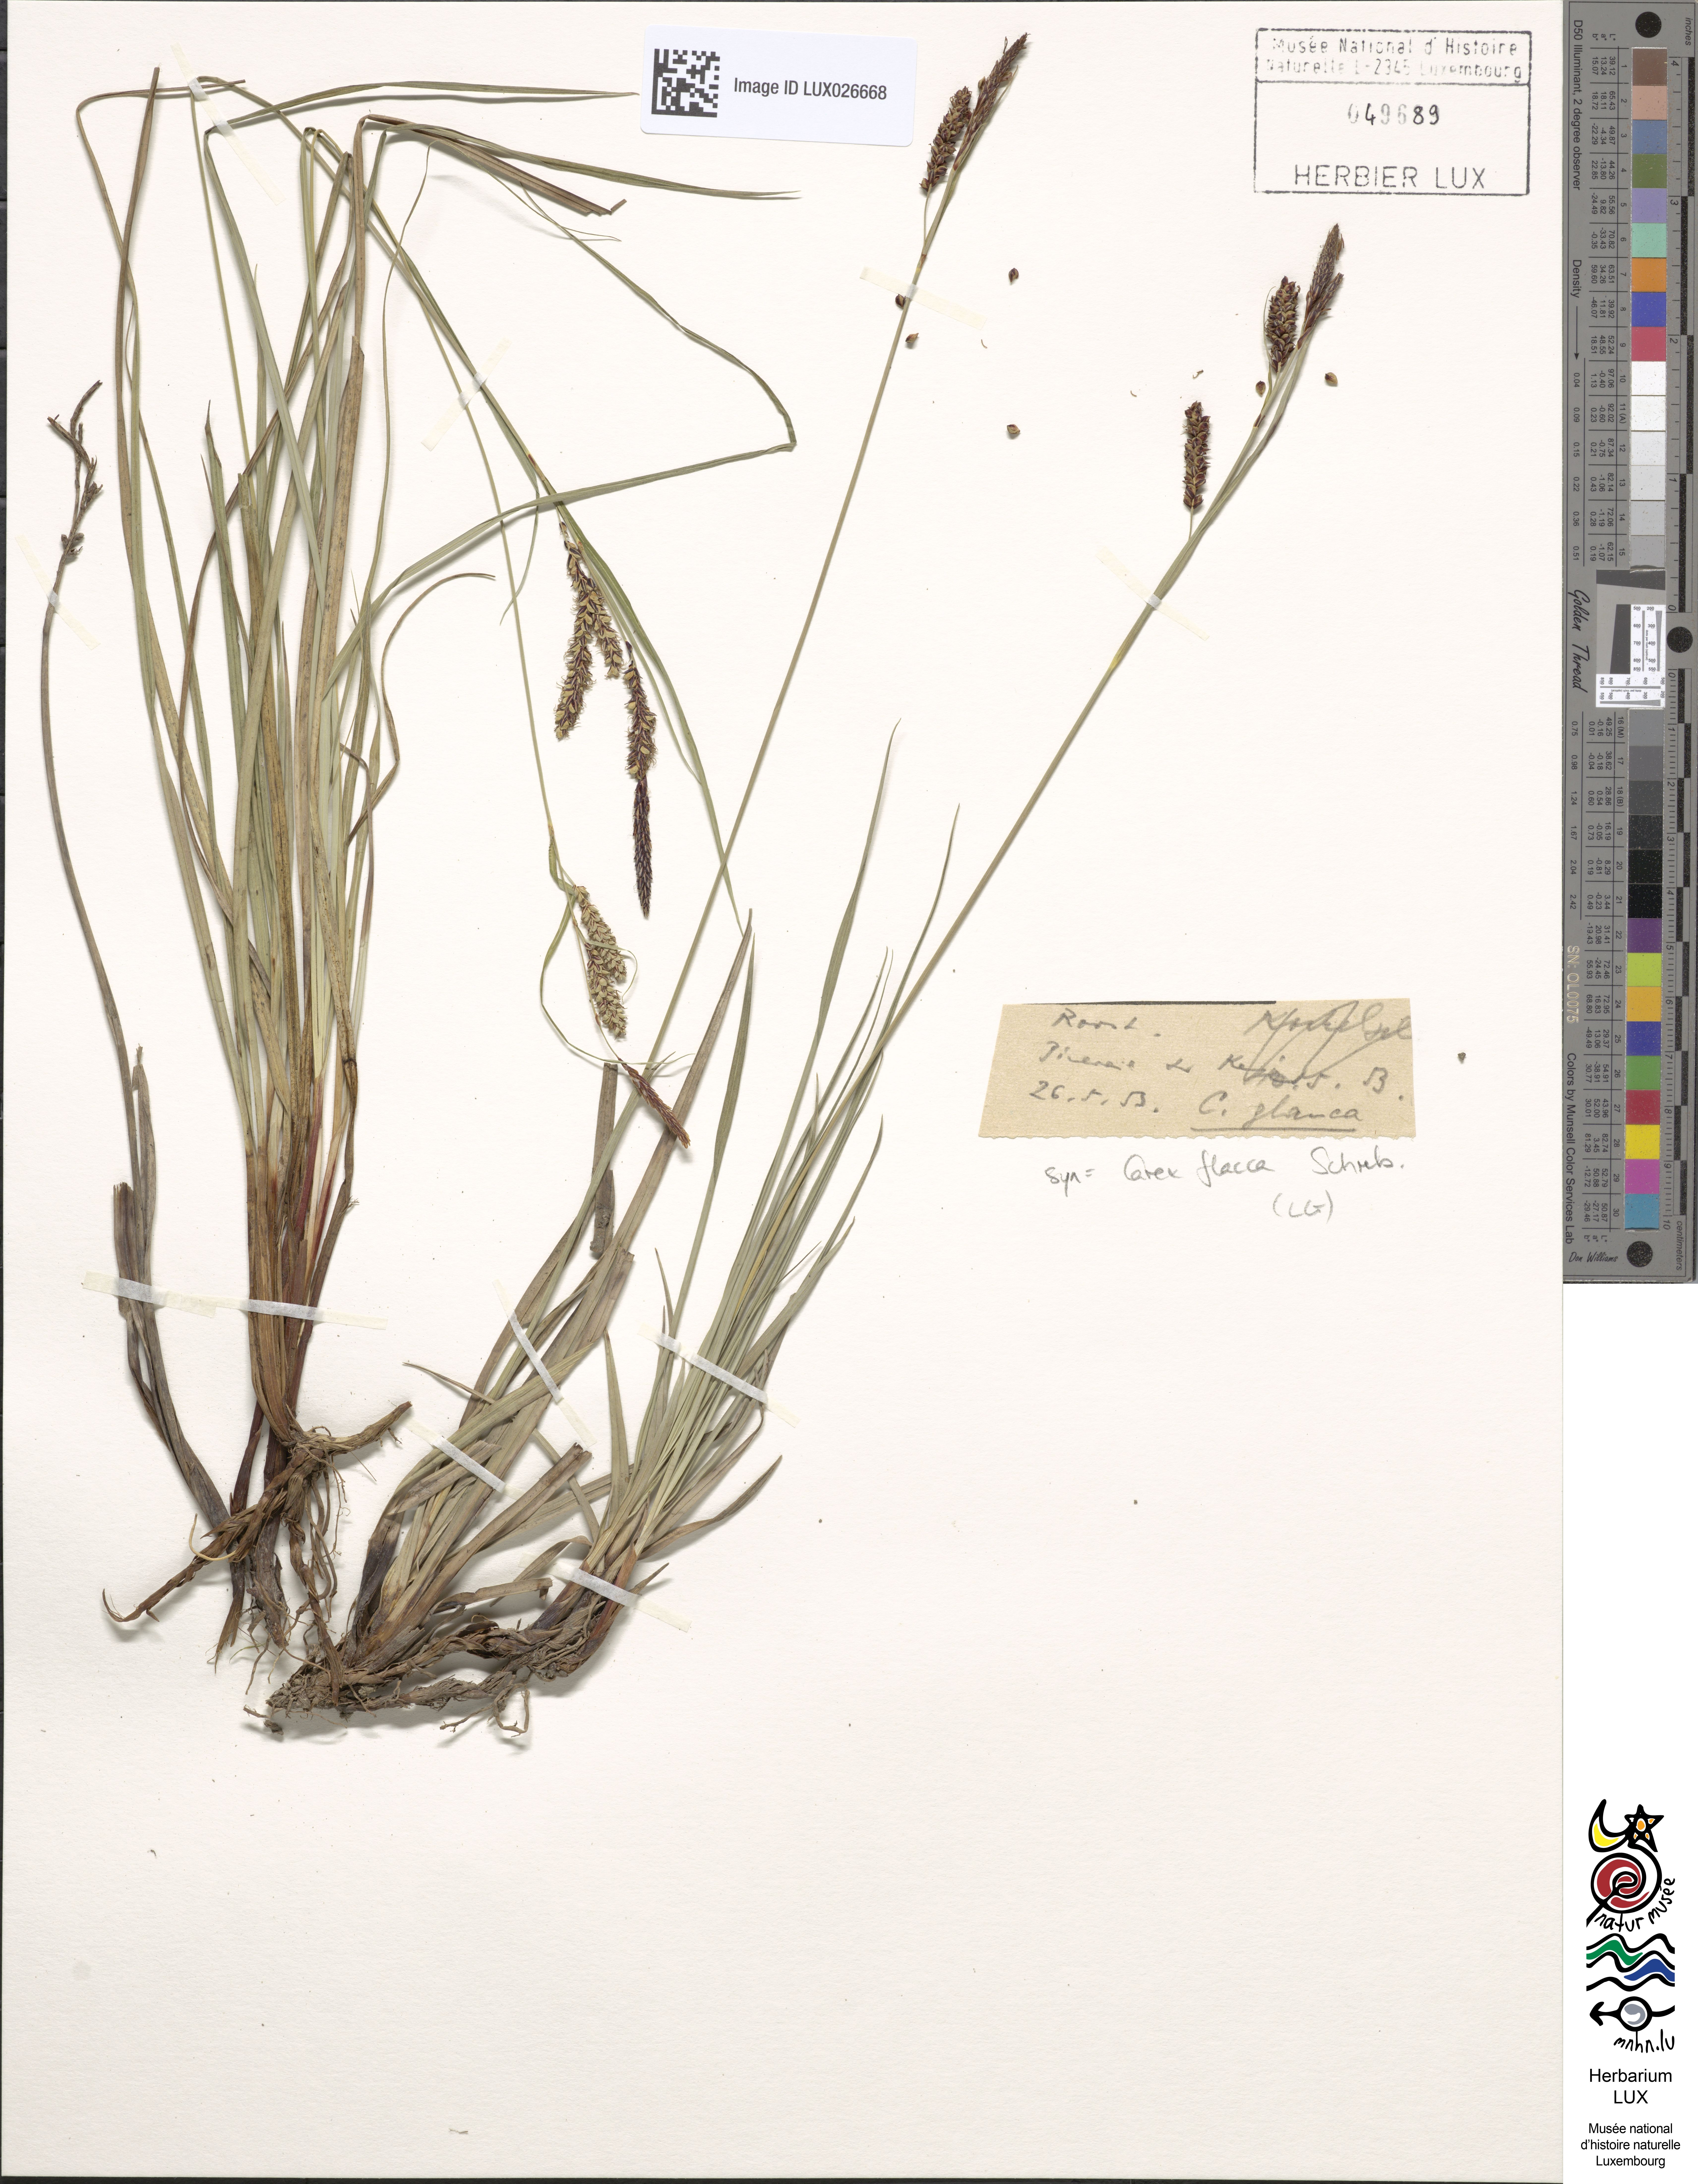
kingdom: Plantae
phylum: Tracheophyta
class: Liliopsida
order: Poales
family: Cyperaceae
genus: Carex
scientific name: Carex flacca
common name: Glaucous sedge
